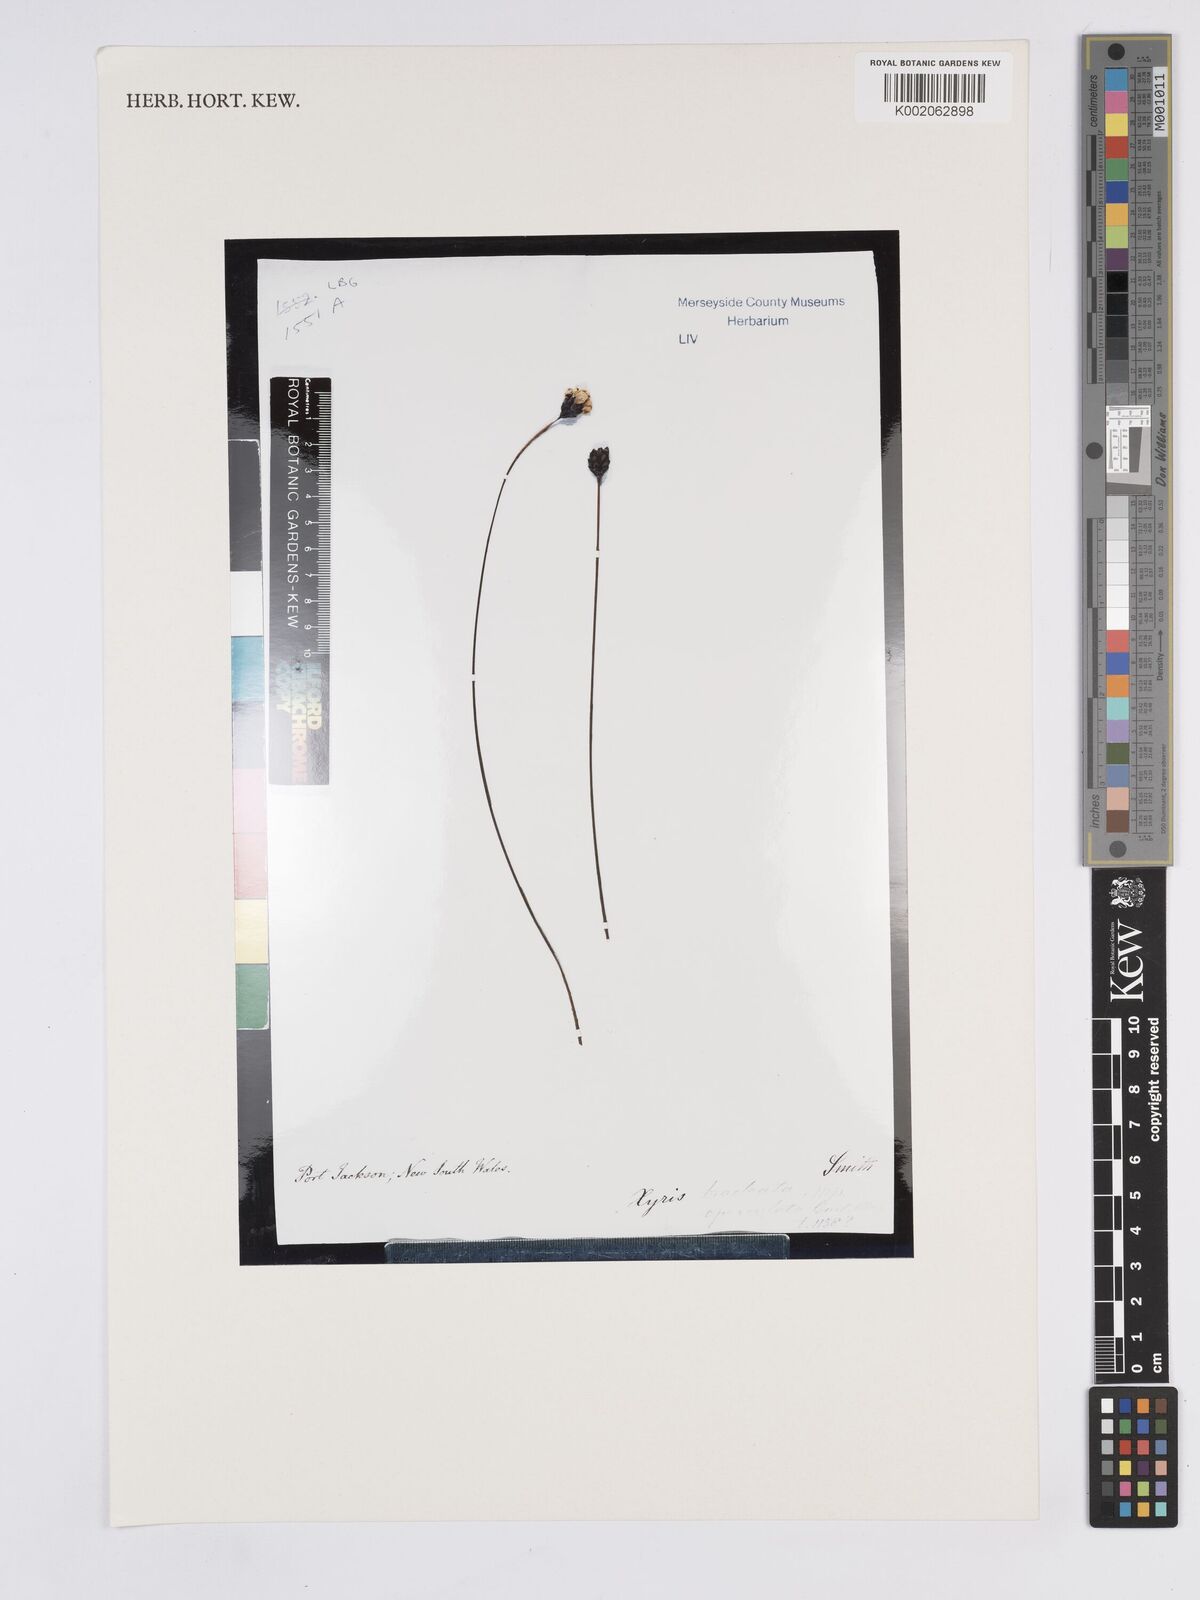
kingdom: Plantae
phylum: Tracheophyta
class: Liliopsida
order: Poales
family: Xyridaceae
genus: Xyris
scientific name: Xyris bracteata
